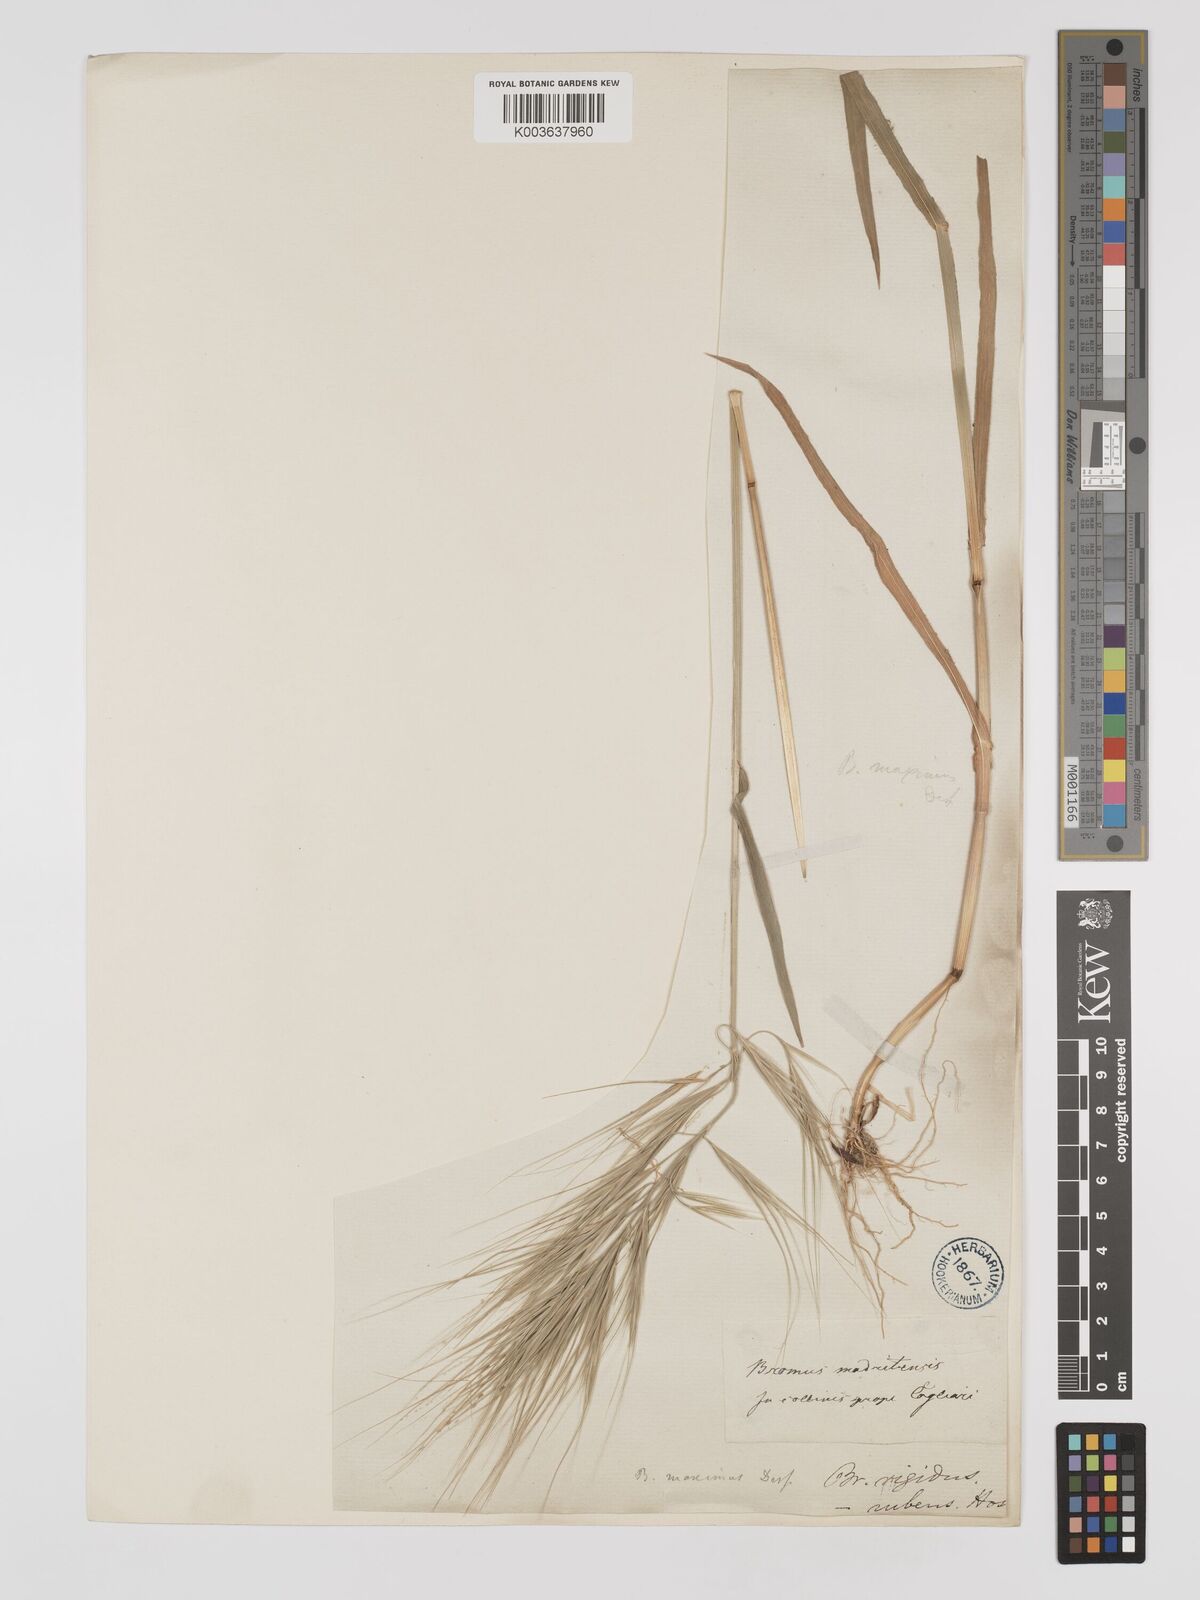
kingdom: Plantae
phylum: Tracheophyta
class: Liliopsida
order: Poales
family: Poaceae
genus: Bromus
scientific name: Bromus
